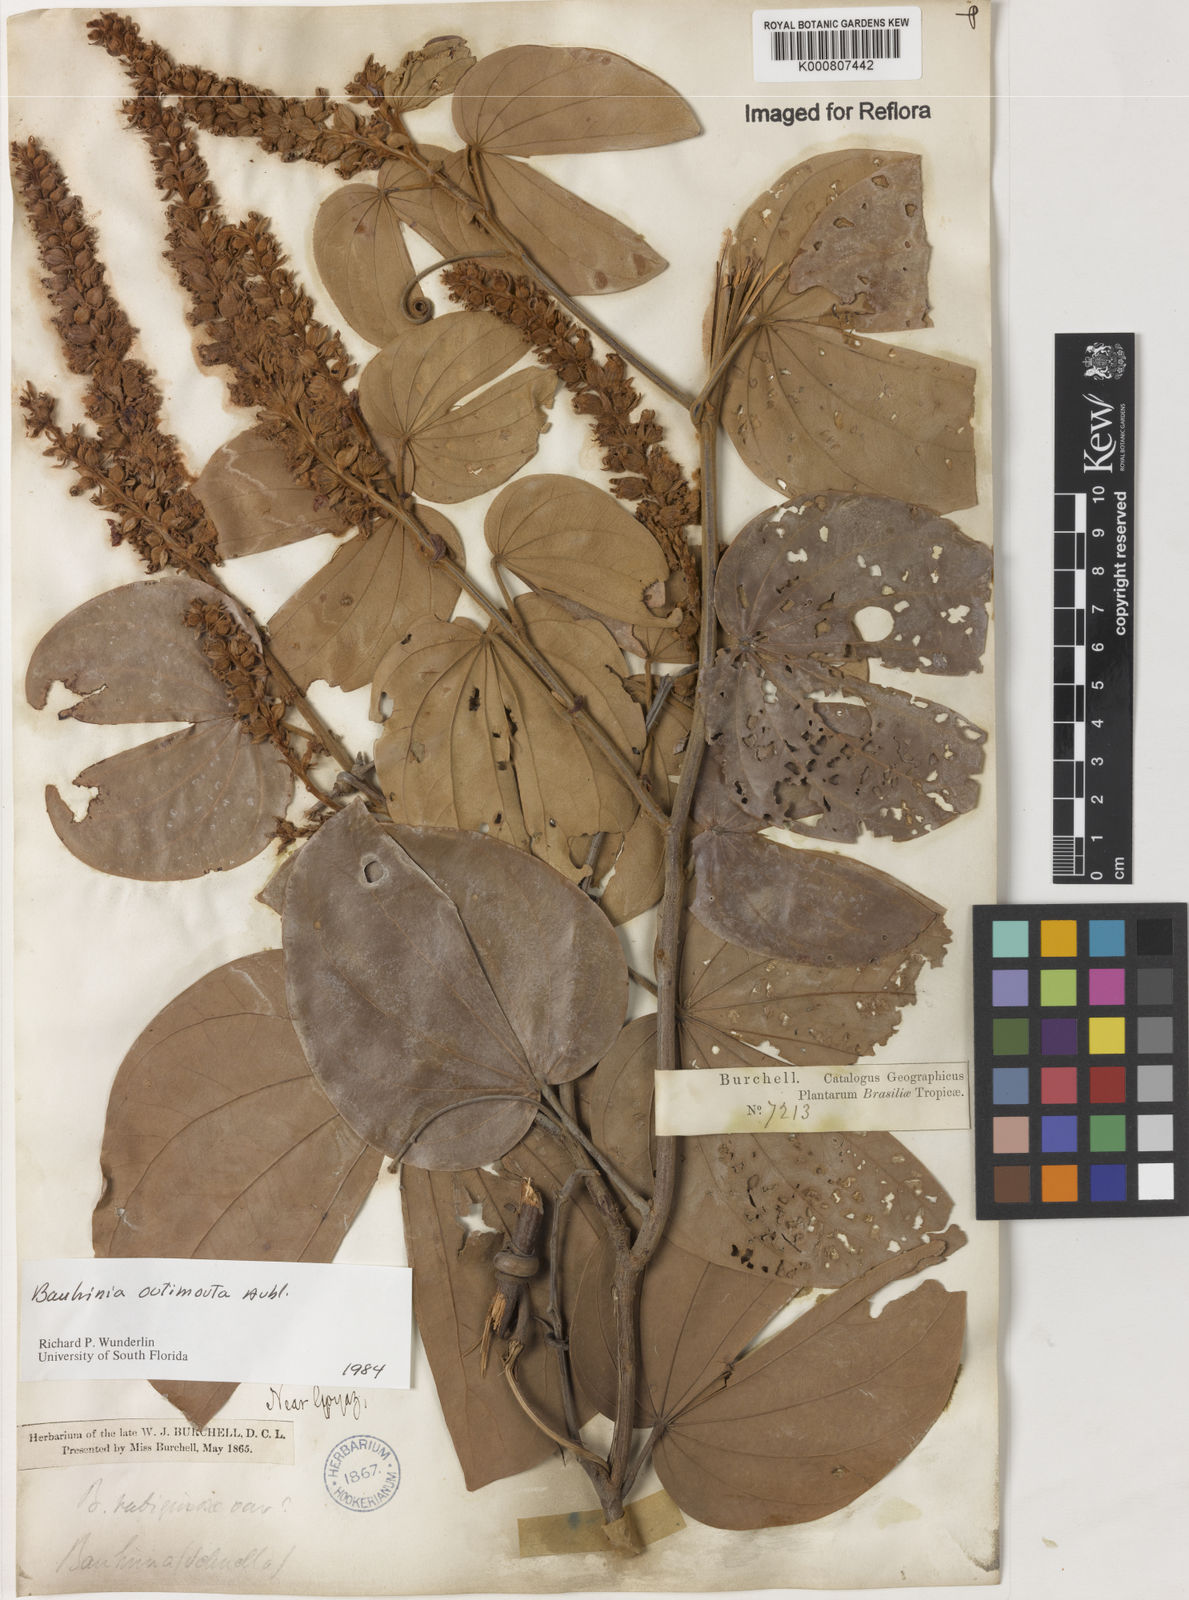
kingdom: Plantae
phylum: Tracheophyta
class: Magnoliopsida
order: Fabales
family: Fabaceae
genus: Schnella
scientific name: Schnella outimouta
